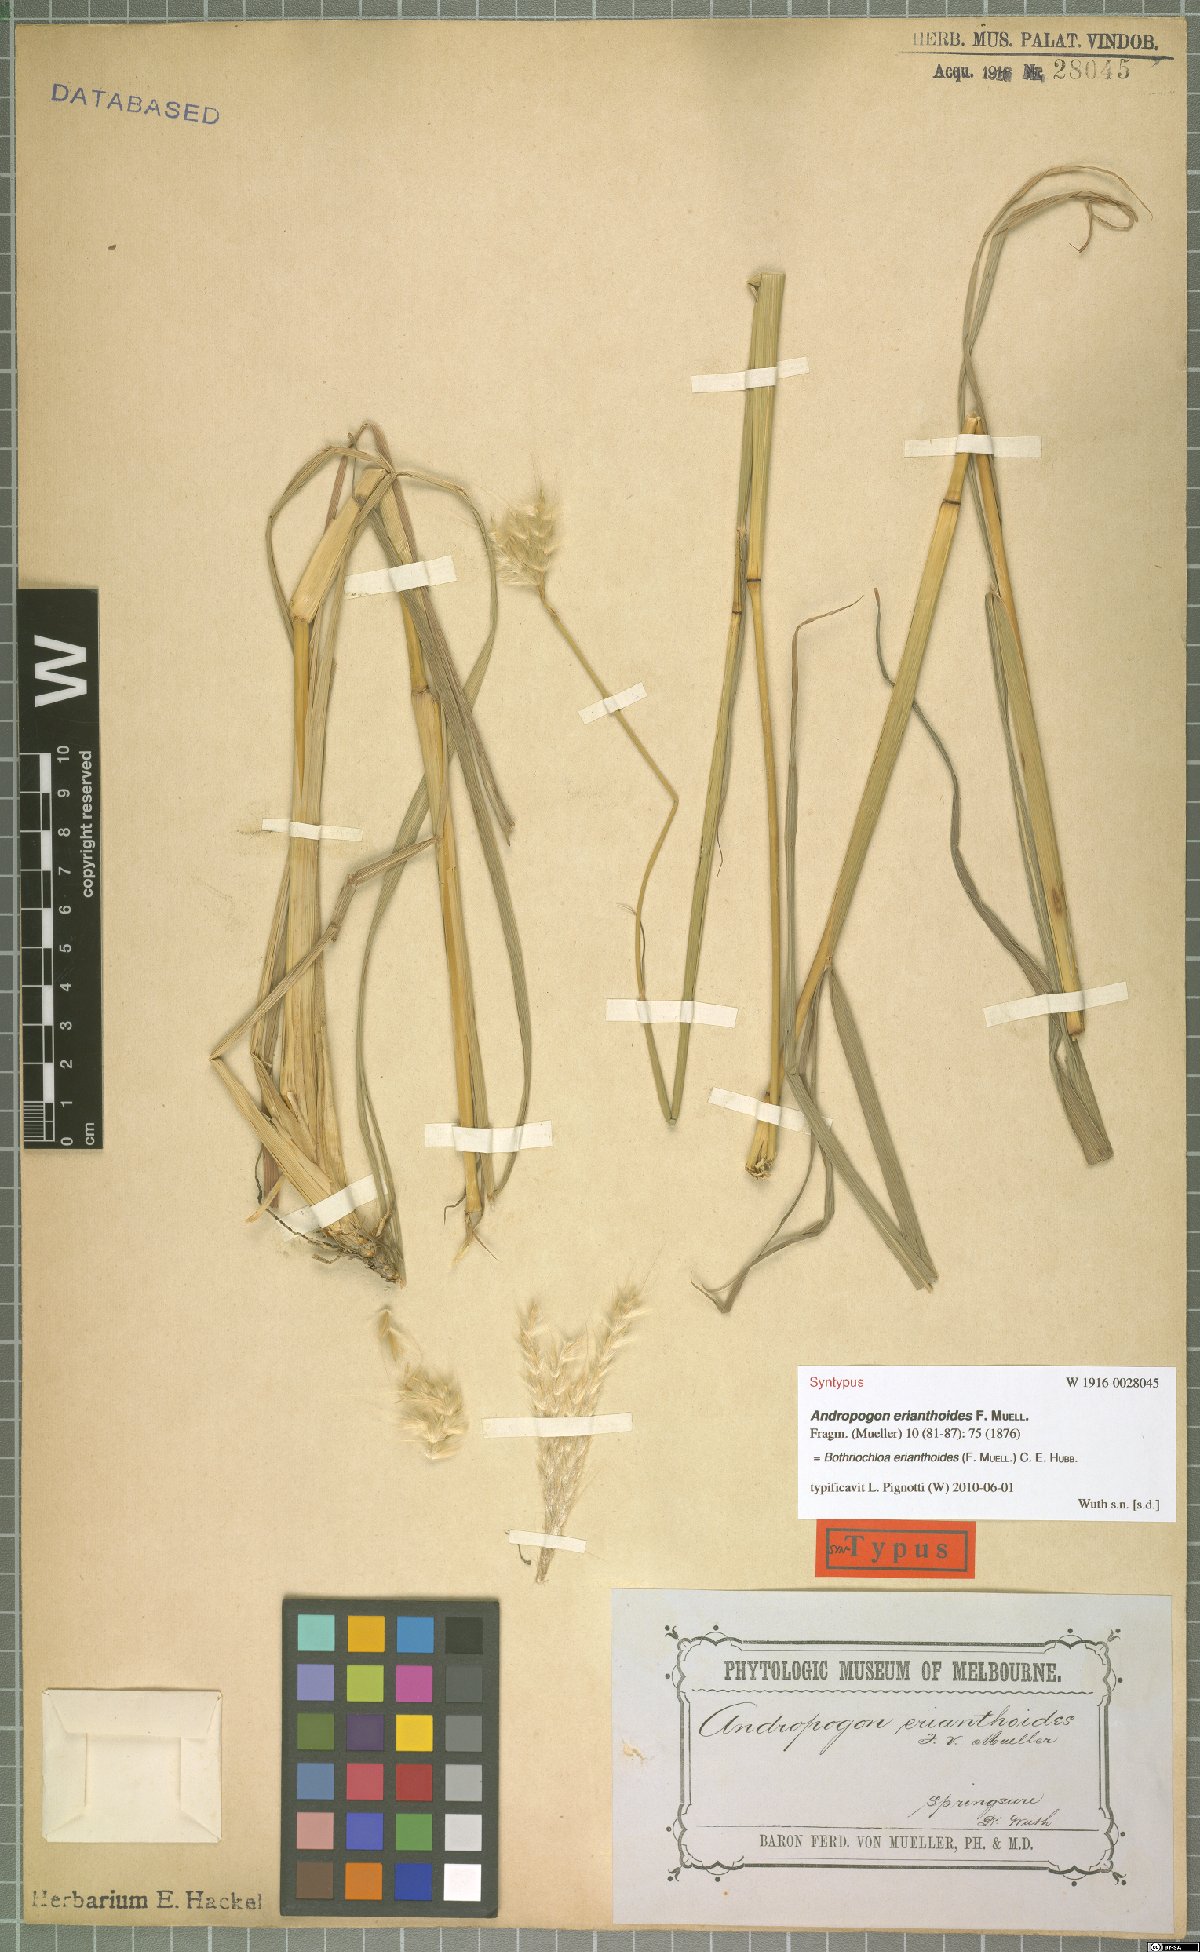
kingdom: Plantae
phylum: Tracheophyta
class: Liliopsida
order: Poales
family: Poaceae
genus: Bothriochloa
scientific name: Bothriochloa erianthoides
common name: Satin-top grass
